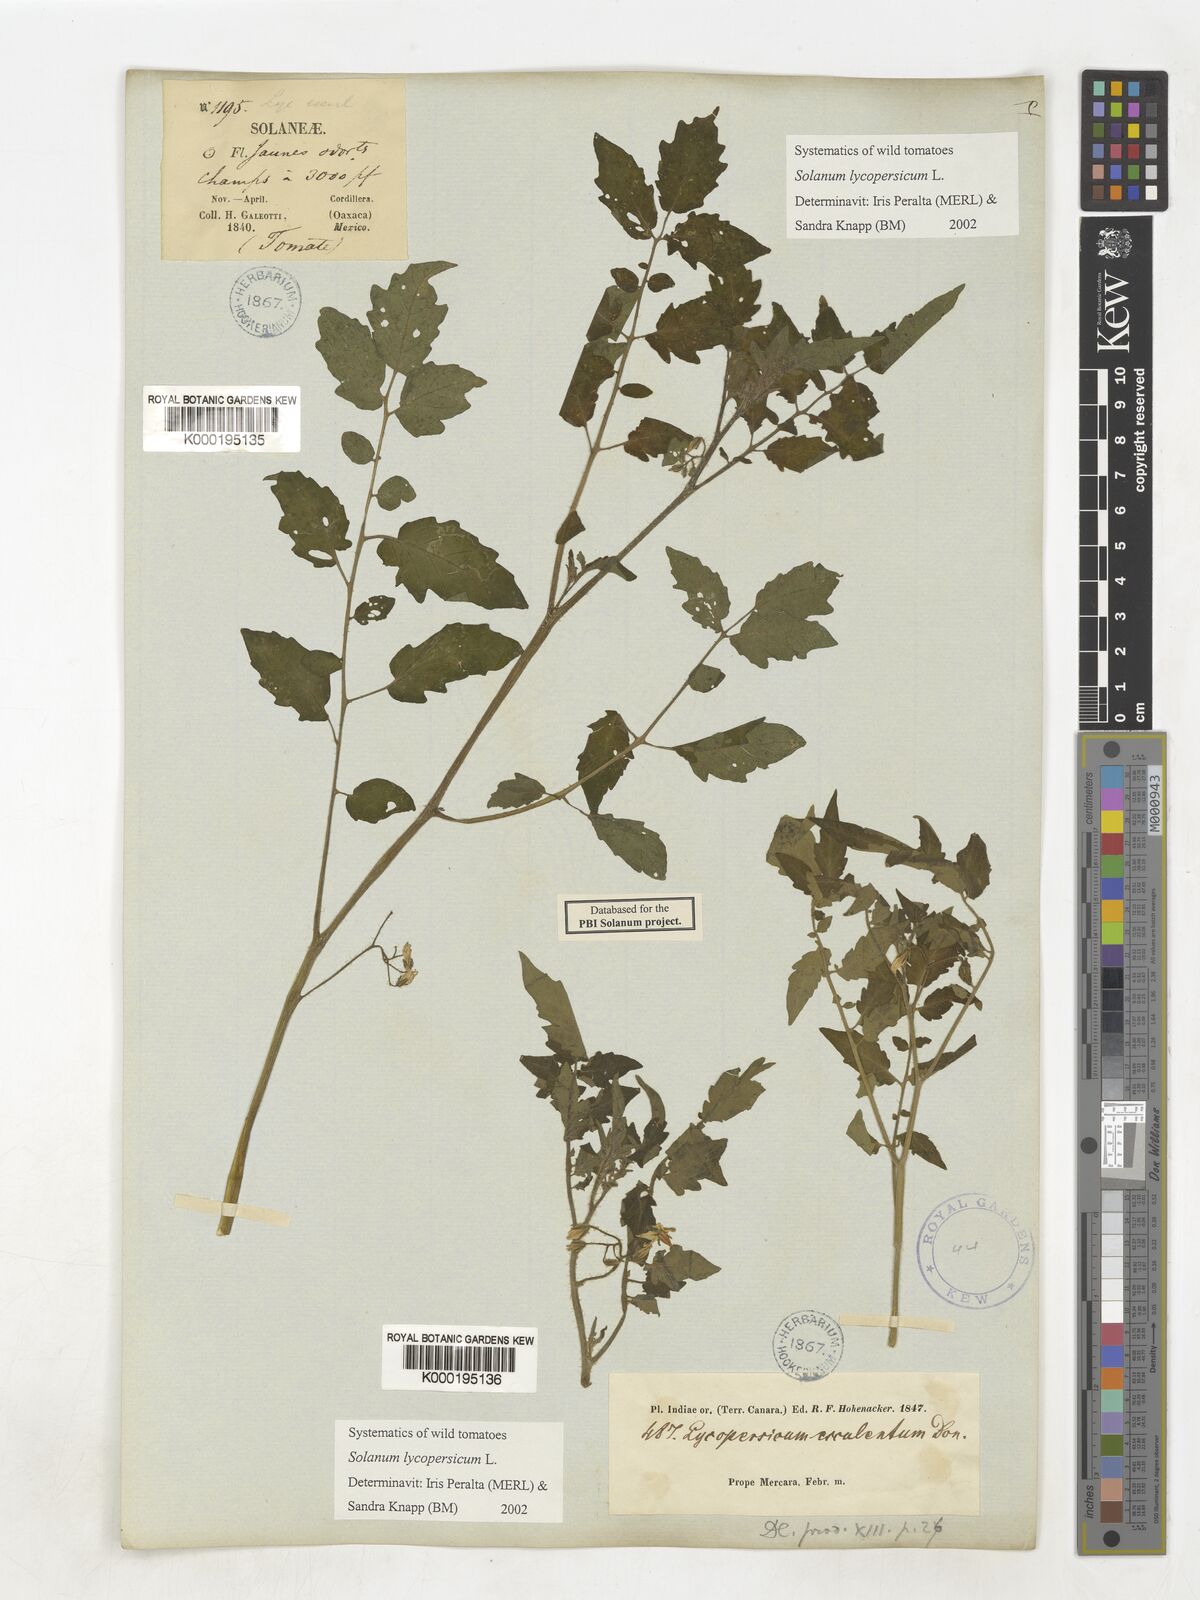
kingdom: Plantae
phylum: Tracheophyta
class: Magnoliopsida
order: Solanales
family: Solanaceae
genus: Solanum
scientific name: Solanum lycopersicum
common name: Garden tomato
